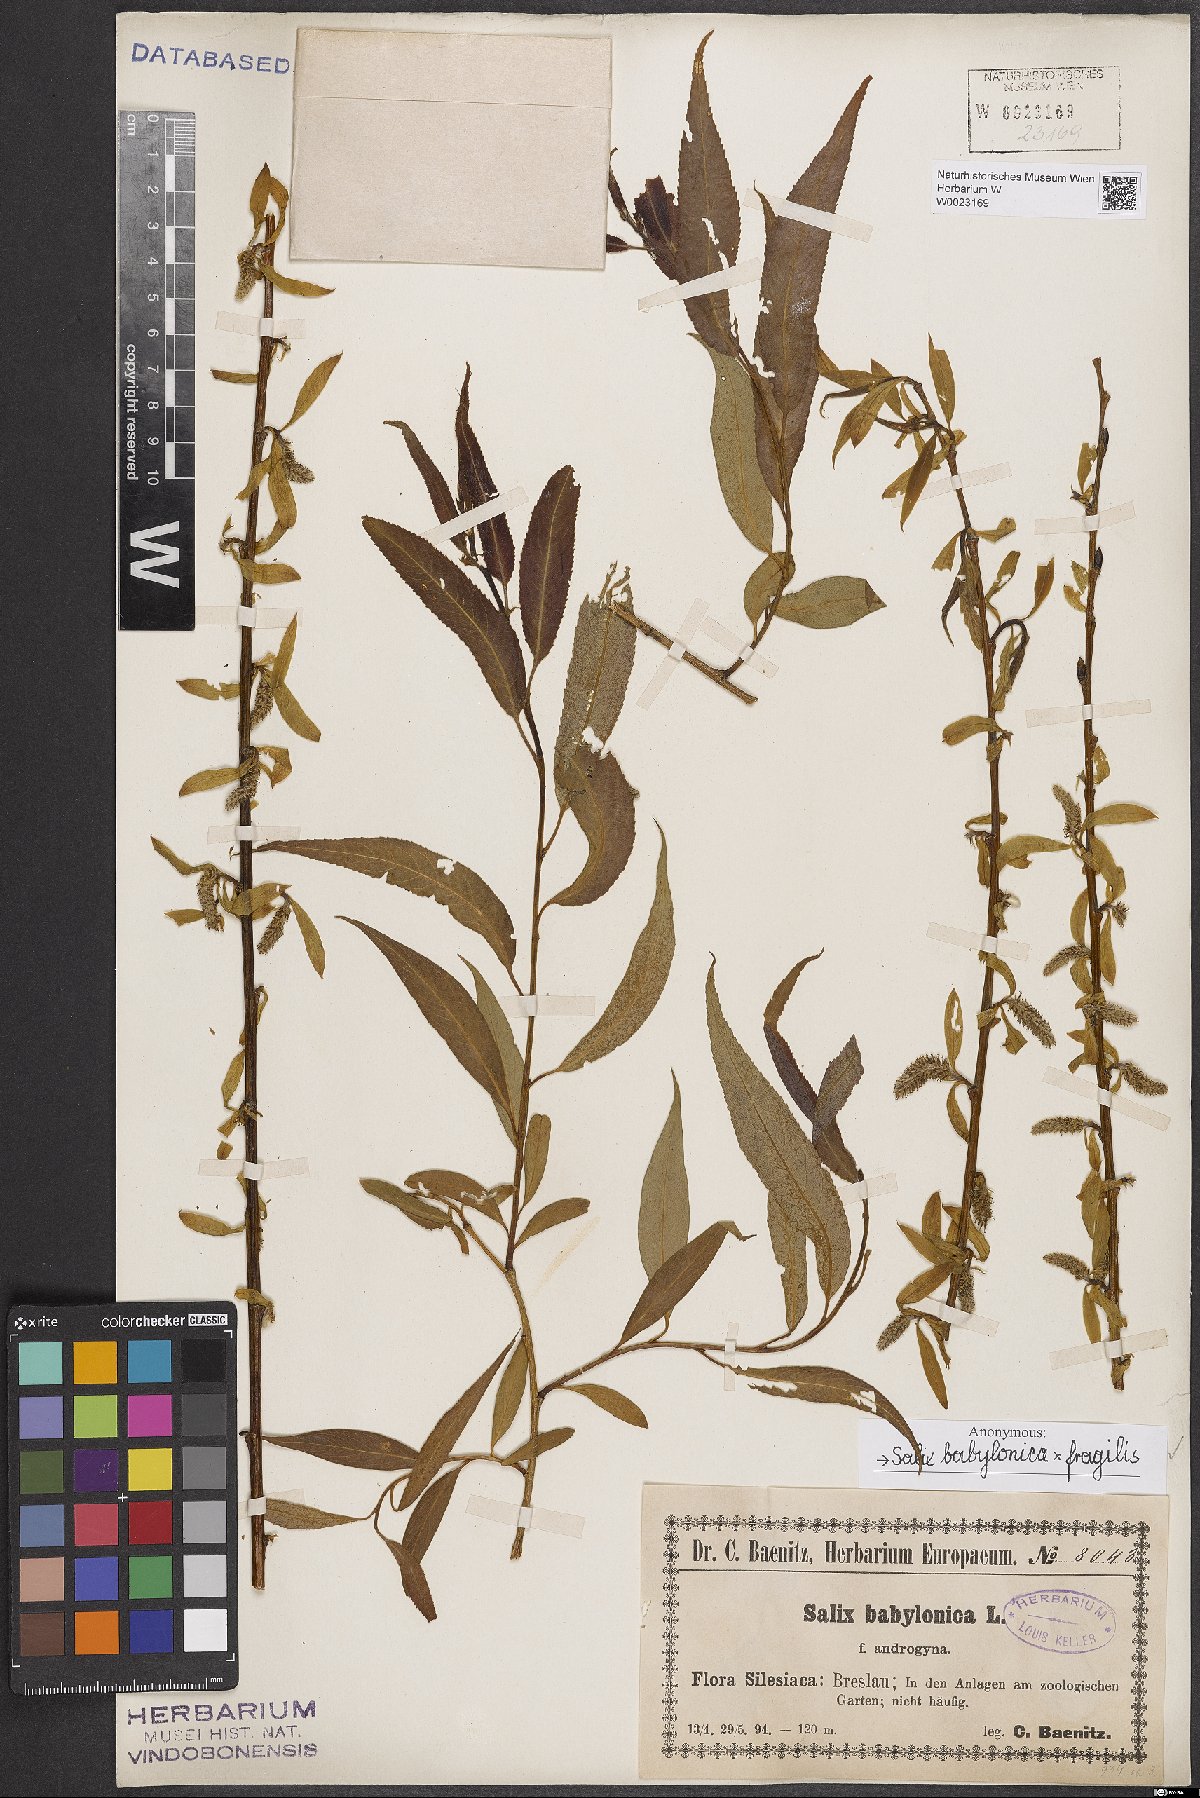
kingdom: Plantae
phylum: Tracheophyta
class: Magnoliopsida
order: Malpighiales
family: Salicaceae
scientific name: Salicaceae
